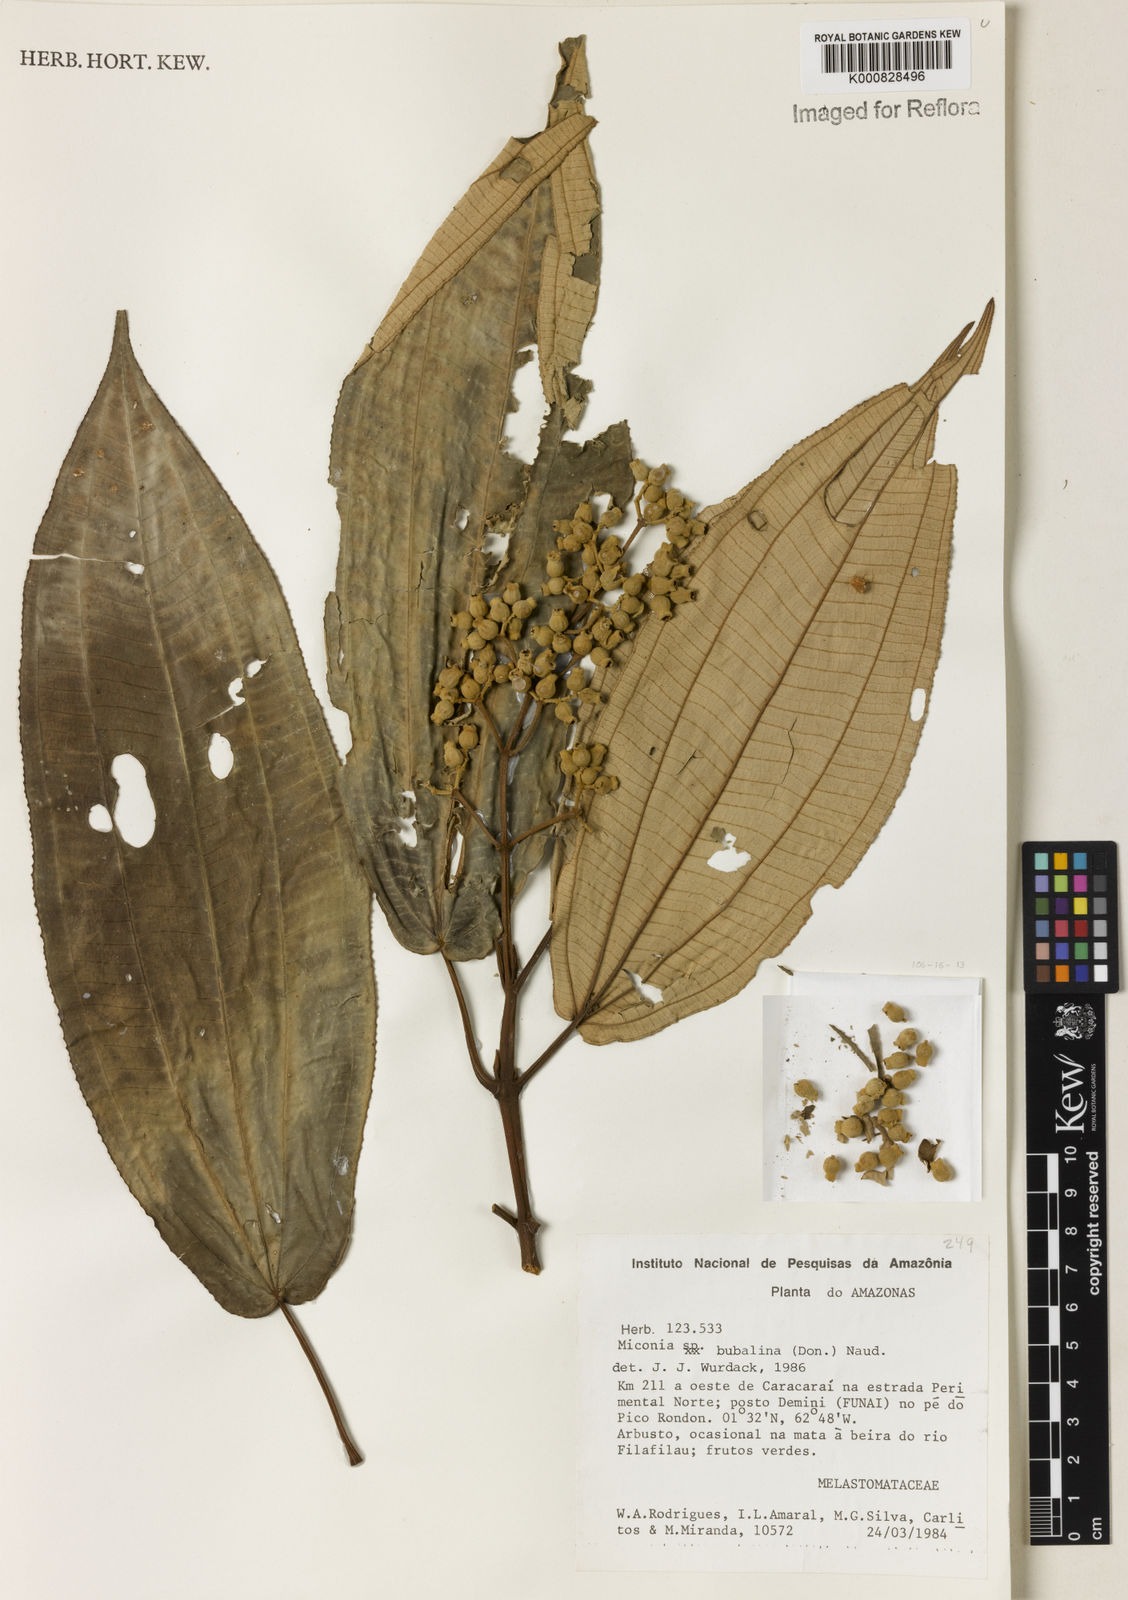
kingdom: Plantae
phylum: Tracheophyta
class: Magnoliopsida
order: Myrtales
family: Melastomataceae
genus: Miconia
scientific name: Miconia bubalina
